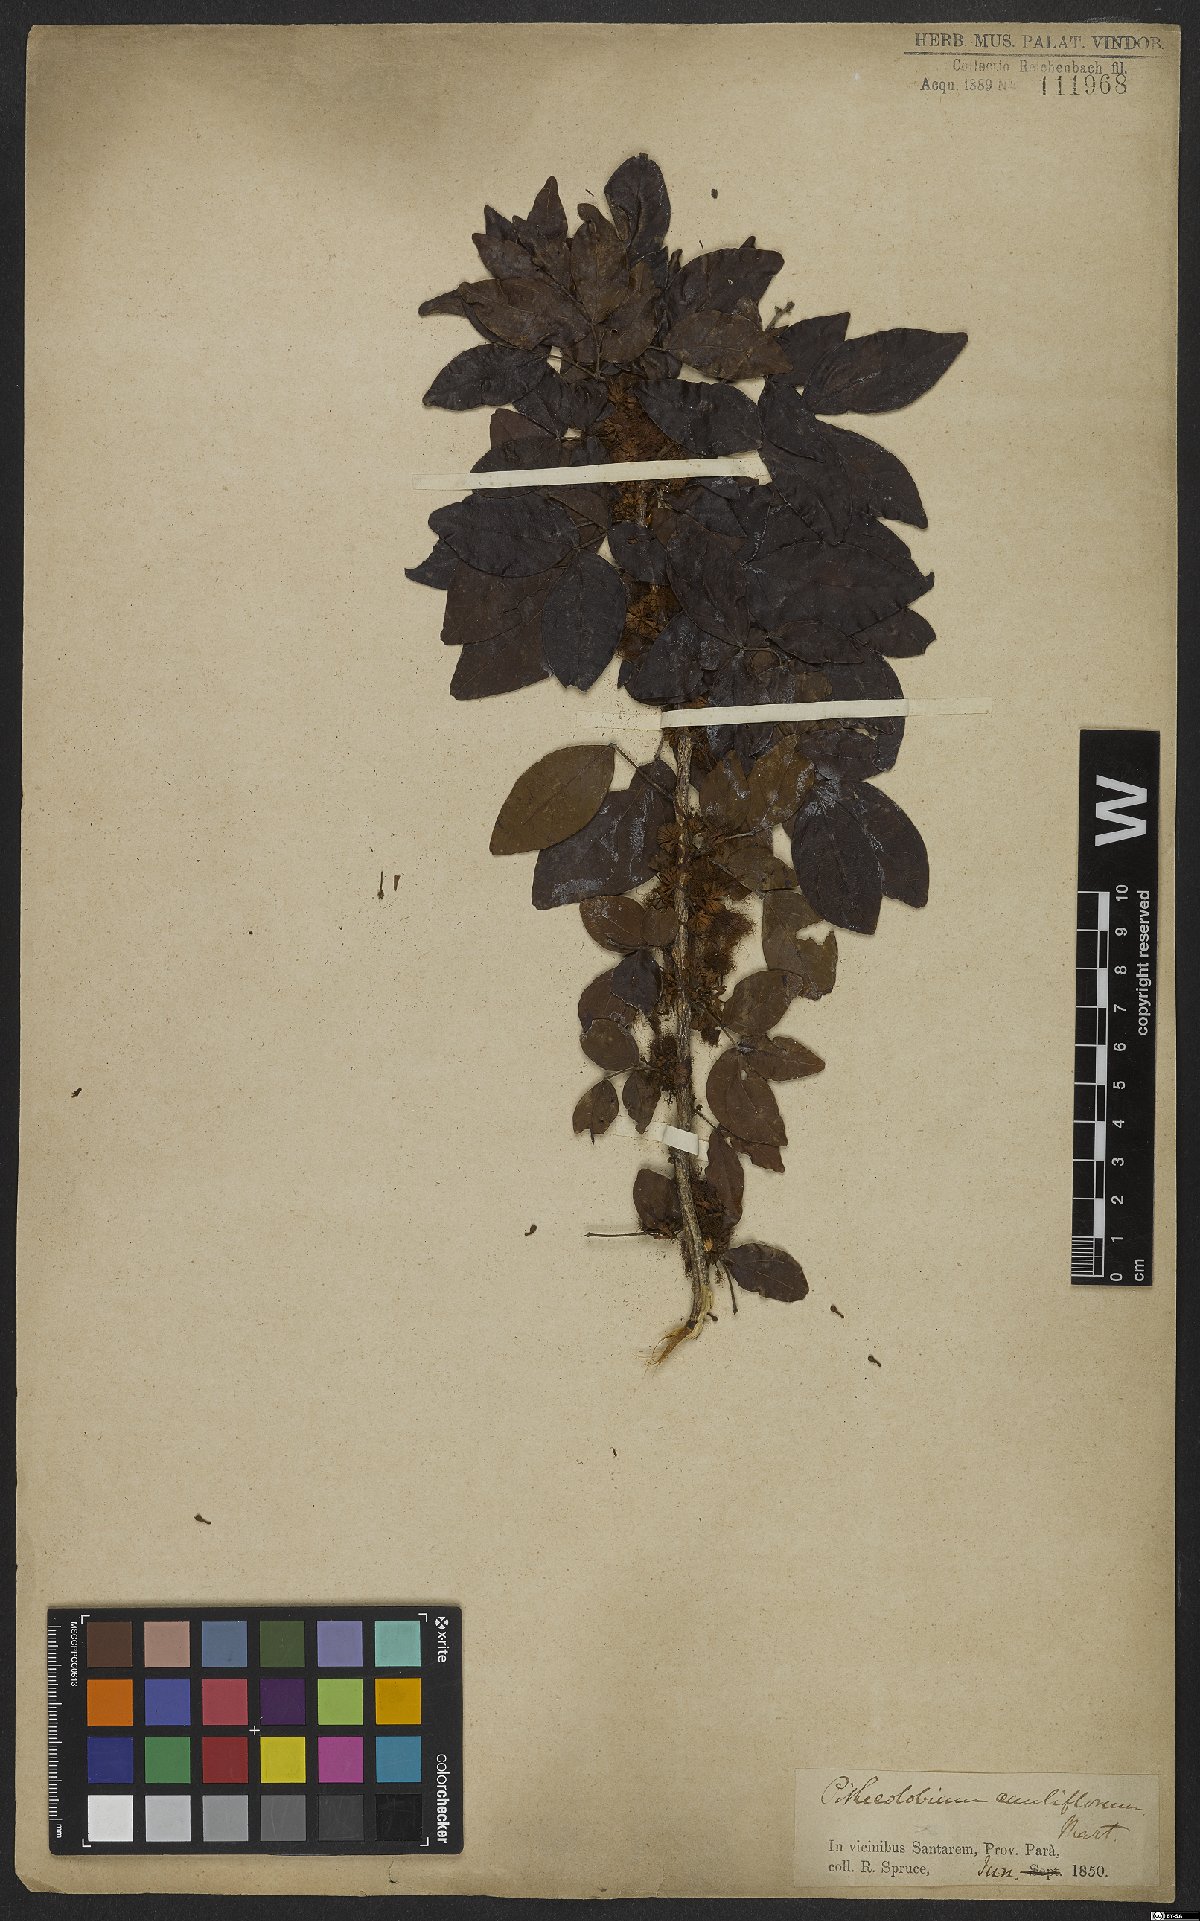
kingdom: Plantae
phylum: Tracheophyta
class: Magnoliopsida
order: Fabales
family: Fabaceae
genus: Zygia
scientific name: Zygia cauliflora
